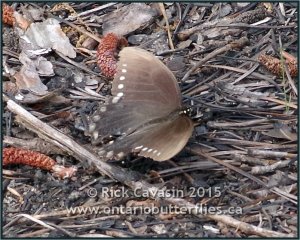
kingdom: Animalia
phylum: Arthropoda
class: Insecta
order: Lepidoptera
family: Papilionidae
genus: Pterourus
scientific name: Pterourus troilus
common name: Spicebush Swallowtail
